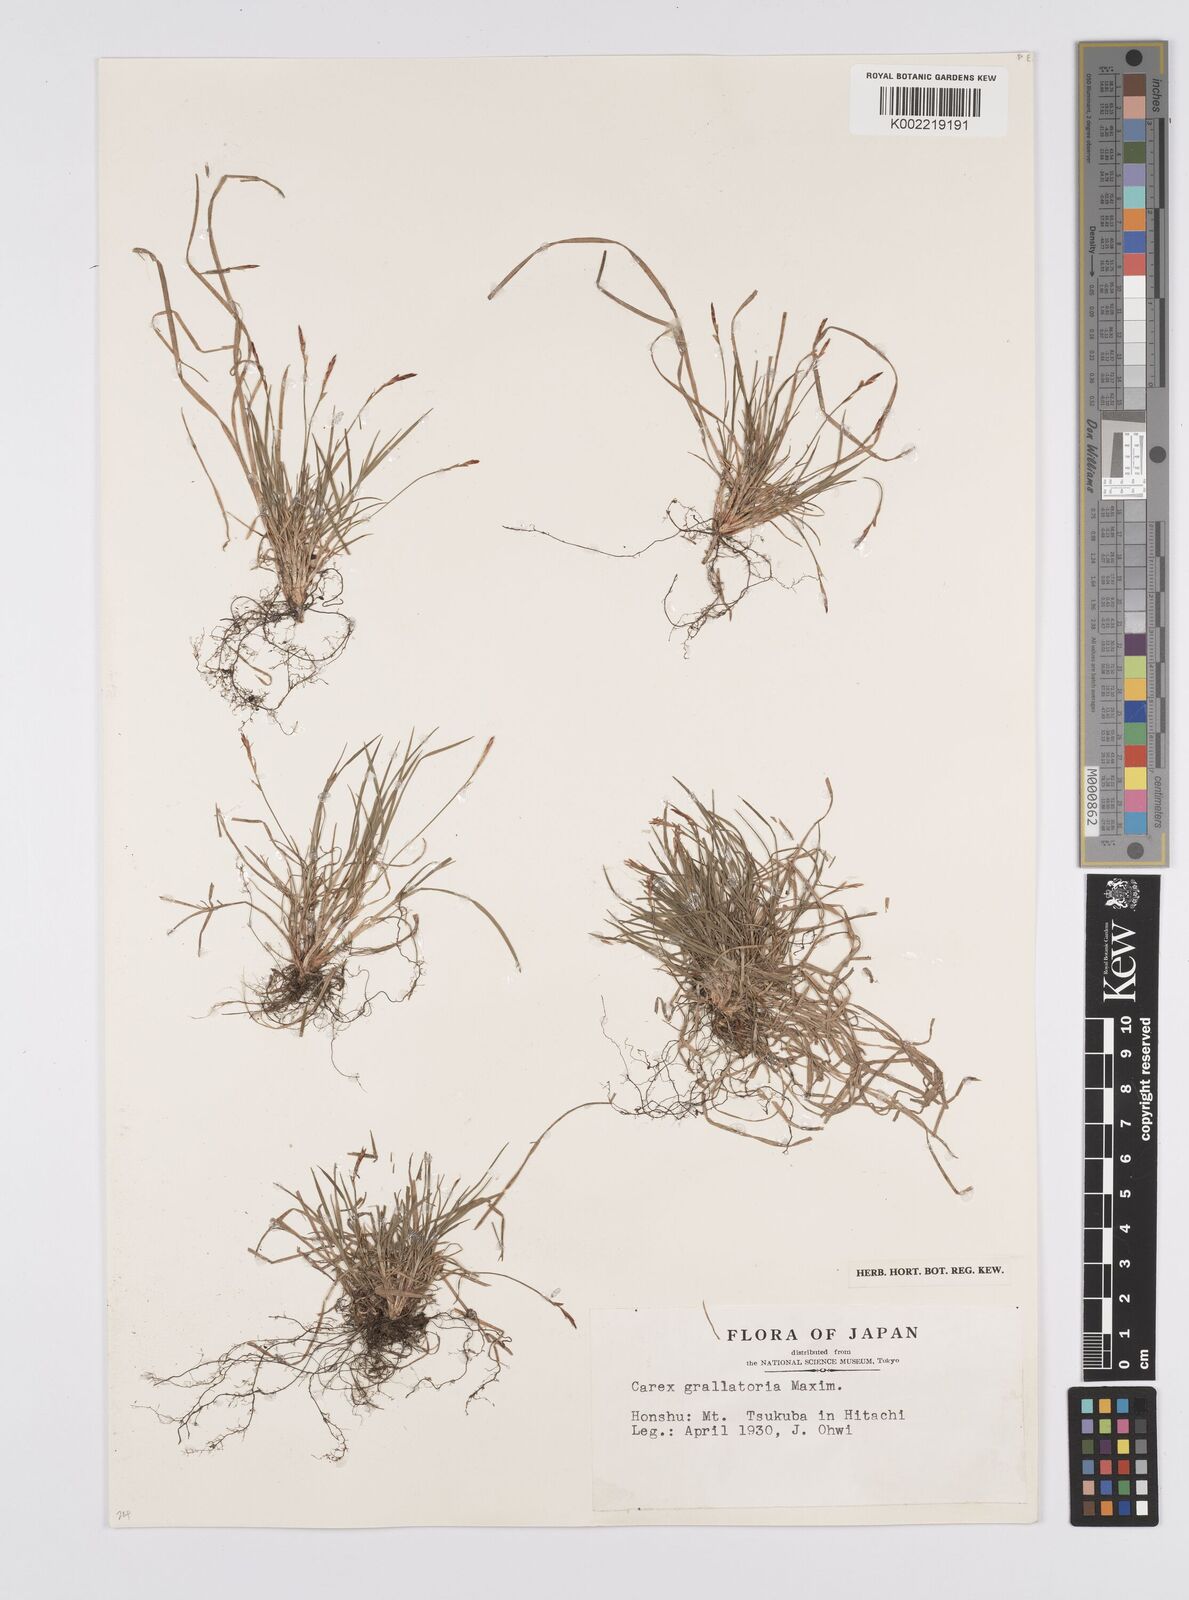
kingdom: Plantae
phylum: Tracheophyta
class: Liliopsida
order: Poales
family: Cyperaceae
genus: Carex
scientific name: Carex grallatoria
